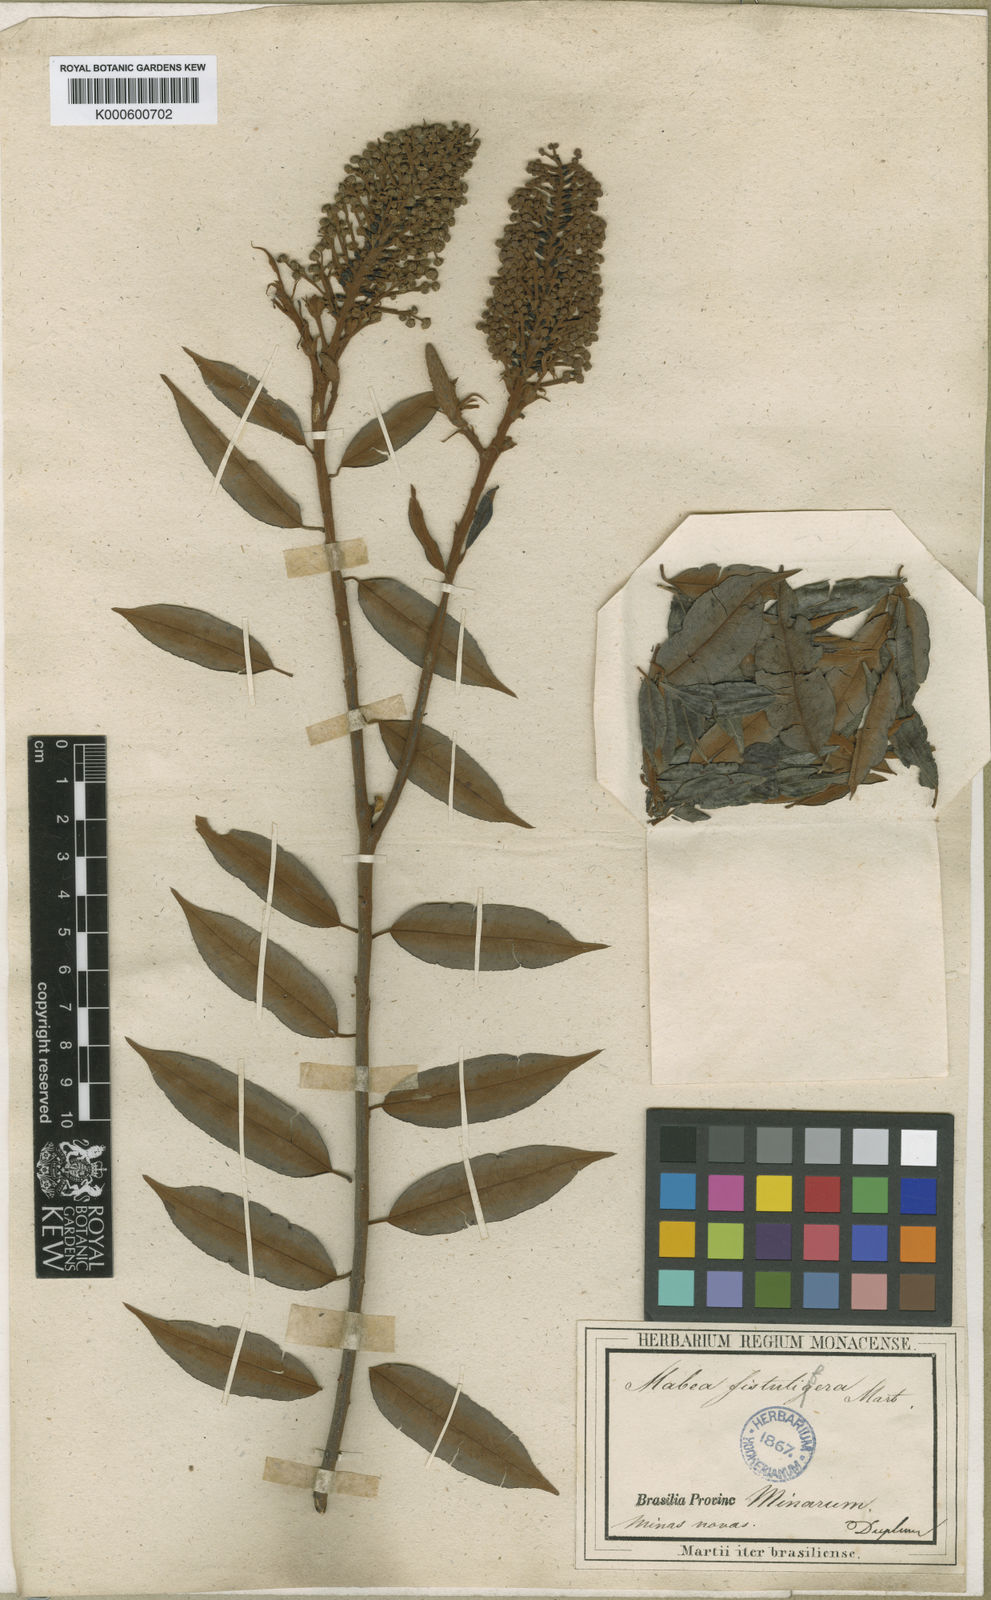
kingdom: Plantae
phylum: Tracheophyta
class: Magnoliopsida
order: Malpighiales
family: Euphorbiaceae
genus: Mabea
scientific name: Mabea fistulifera
